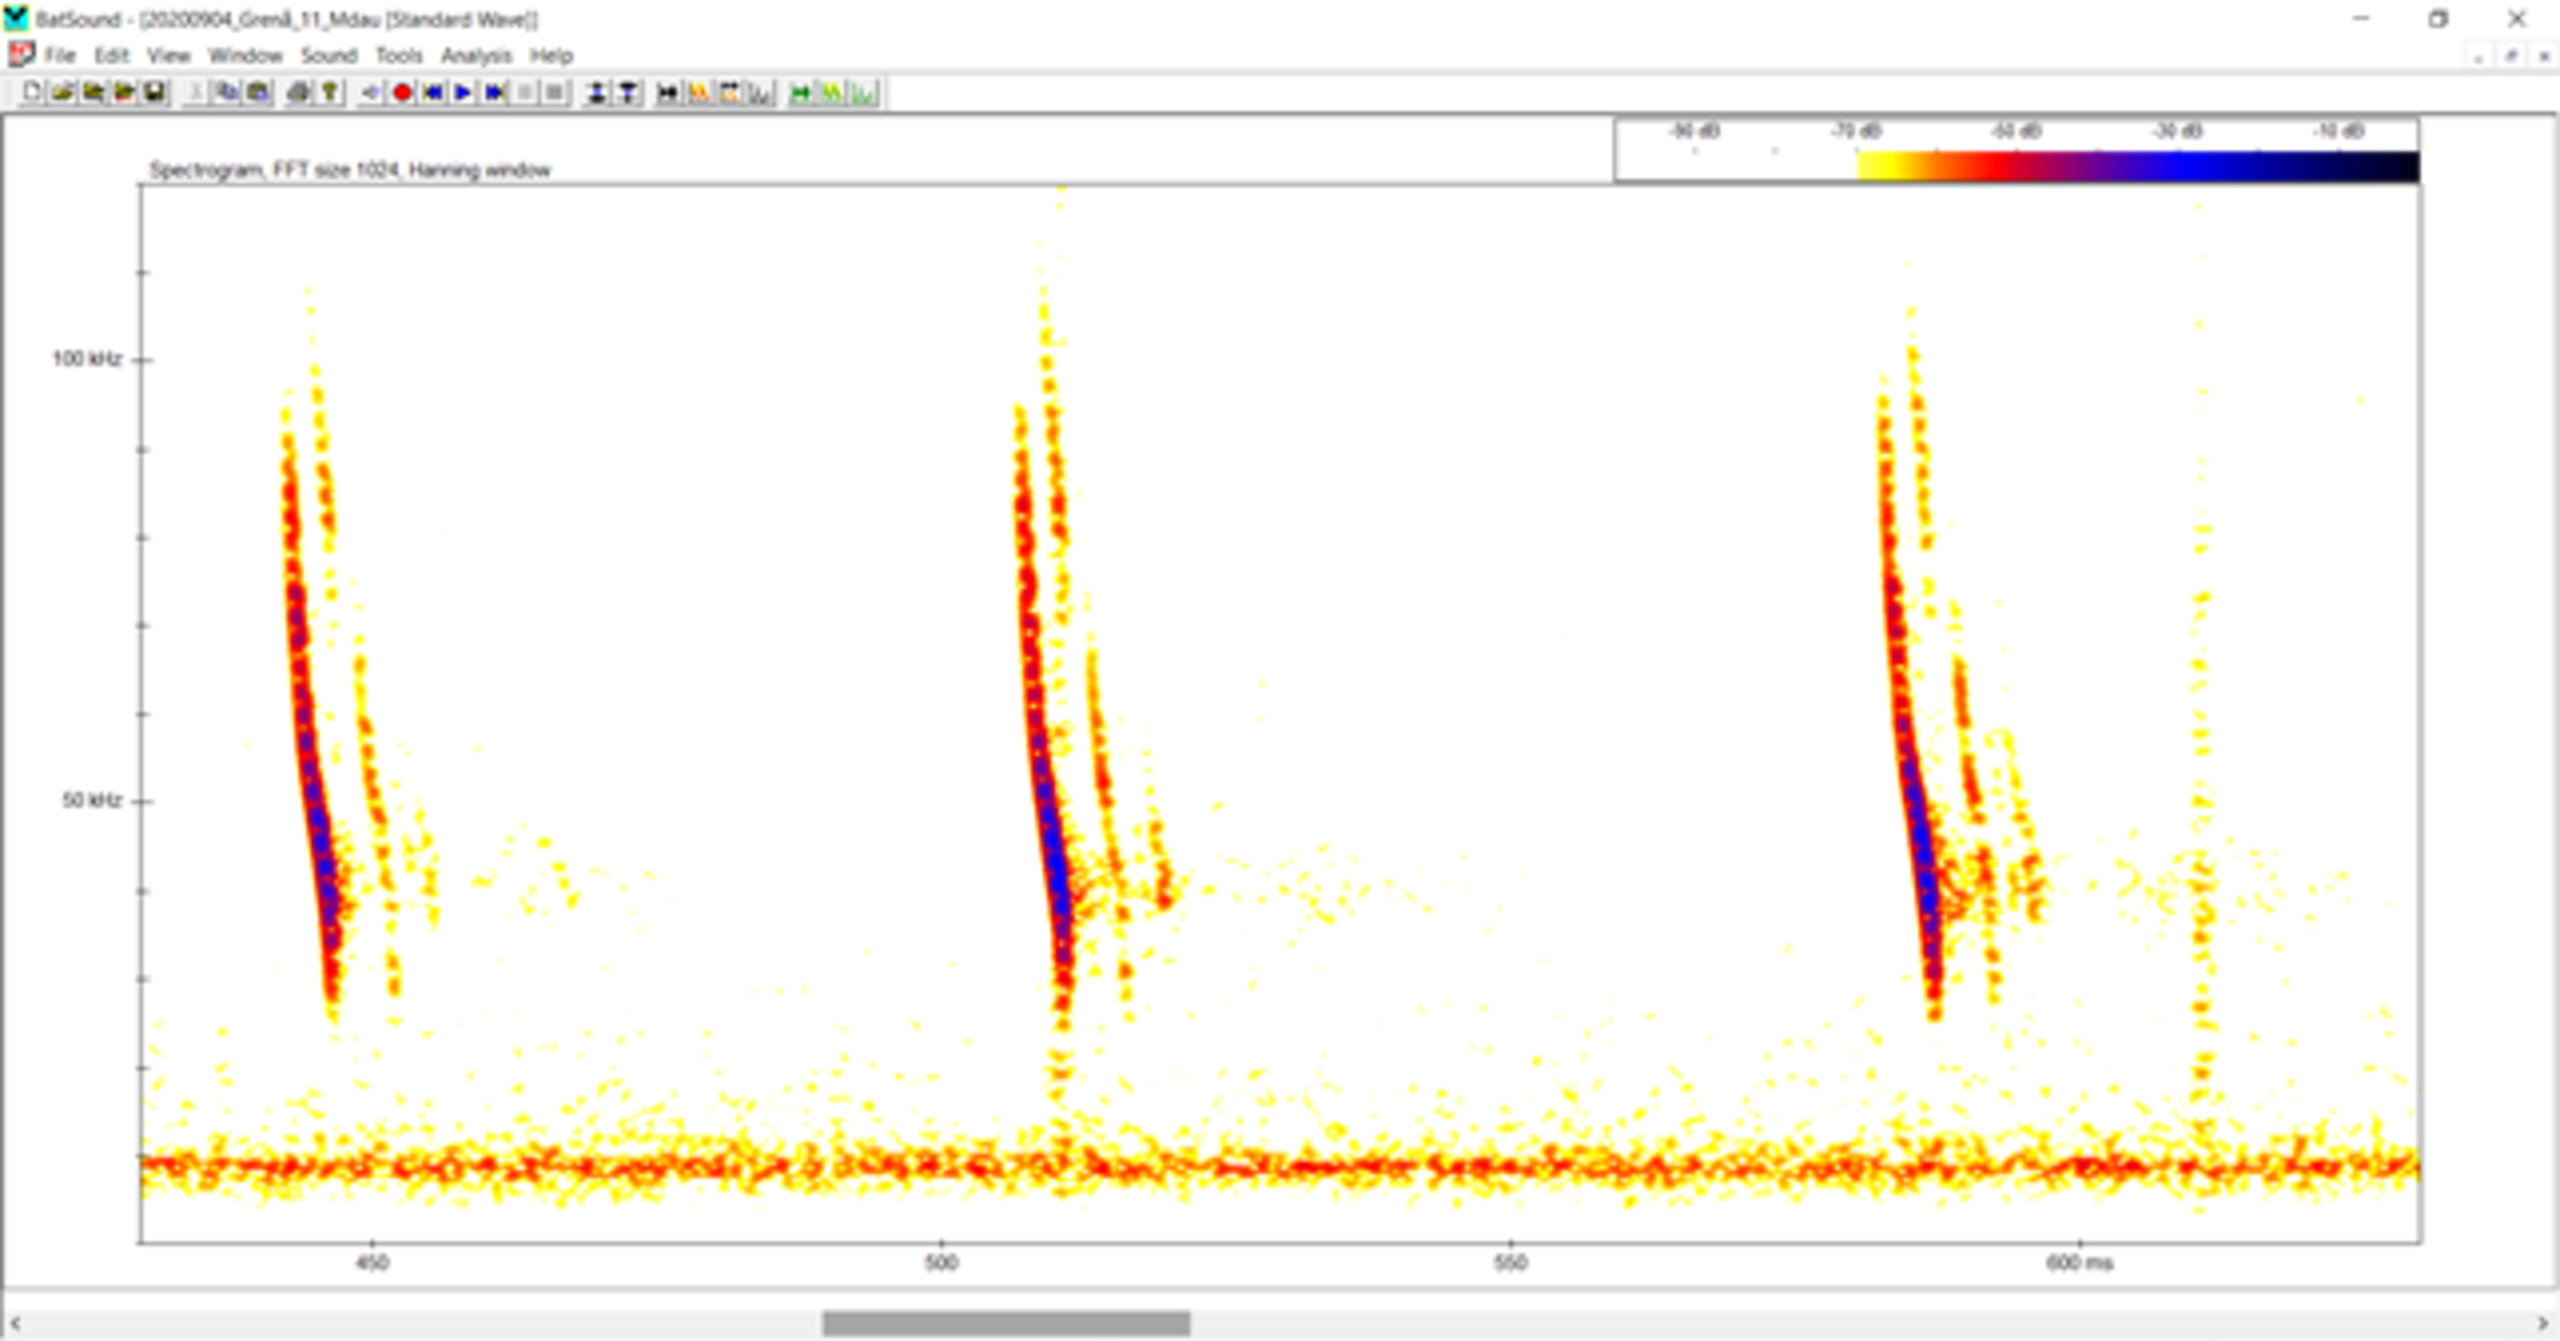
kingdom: Animalia
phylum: Chordata
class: Mammalia
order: Chiroptera
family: Vespertilionidae
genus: Myotis
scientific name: Myotis daubentonii
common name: Vandflagermus
